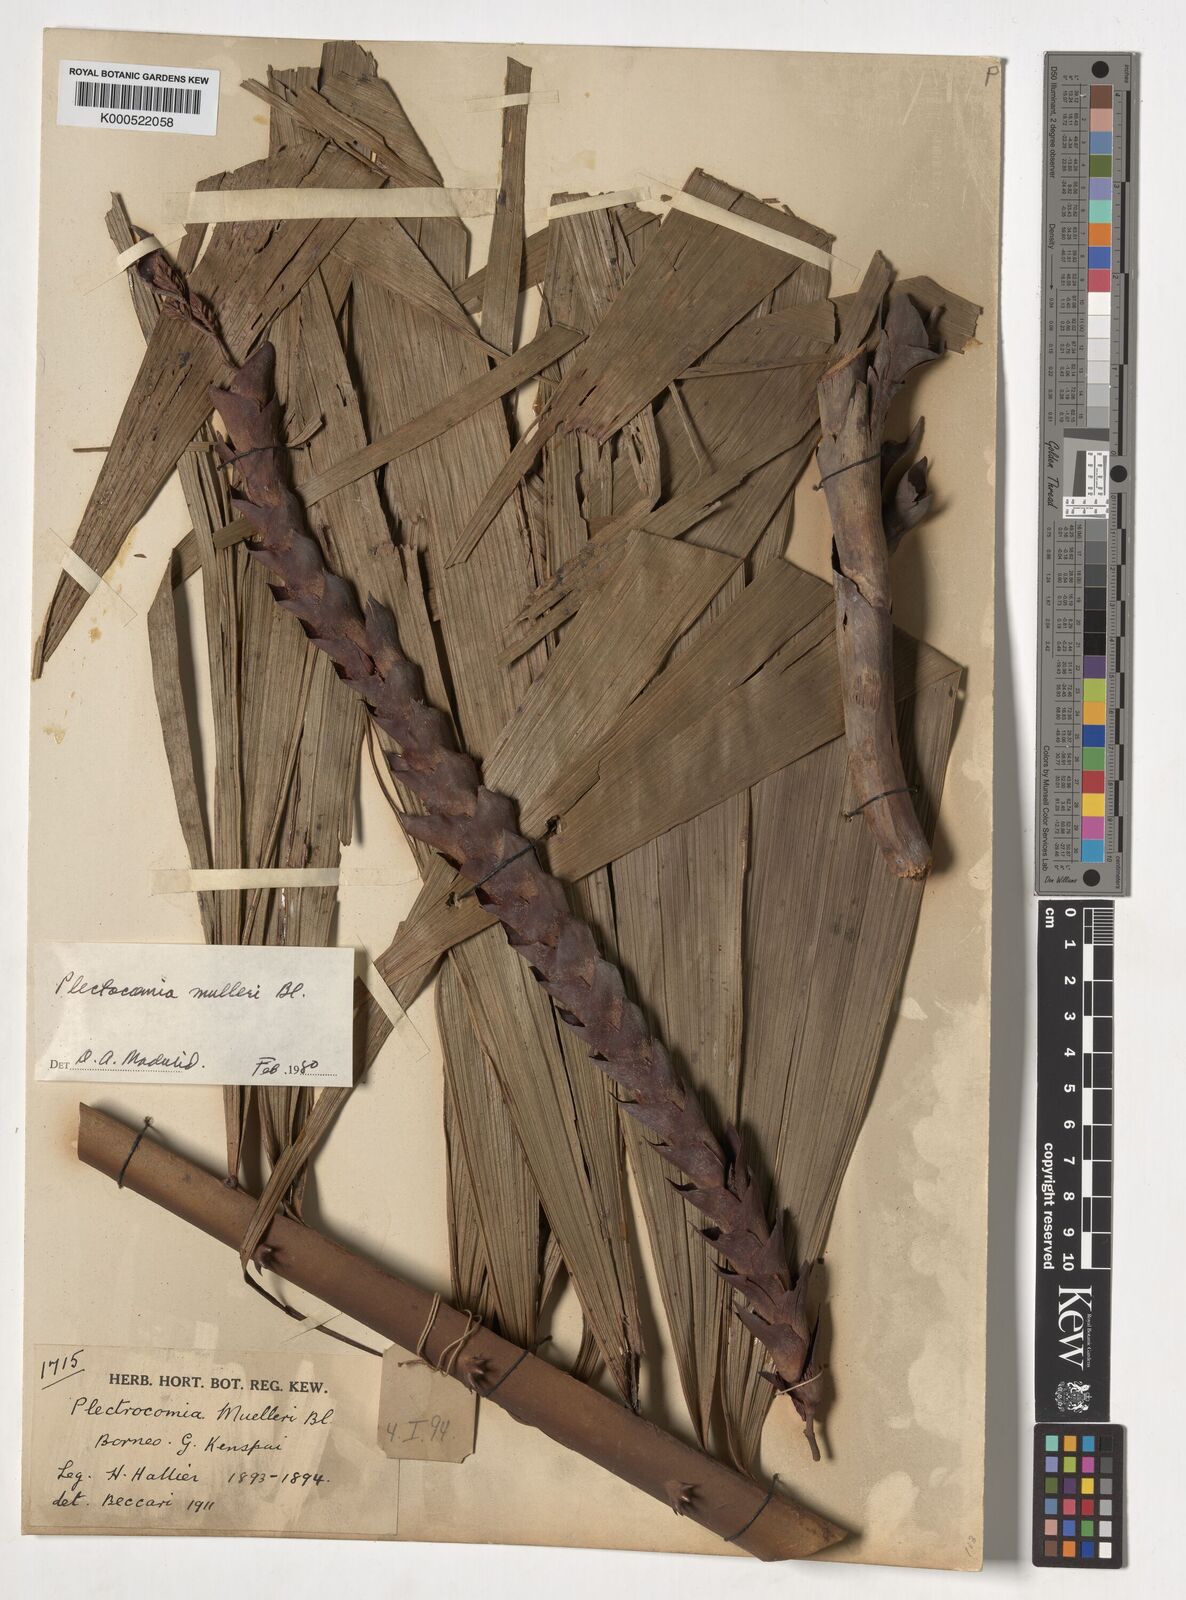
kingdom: Plantae
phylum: Tracheophyta
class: Liliopsida
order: Arecales
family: Arecaceae
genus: Plectocomia
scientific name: Plectocomia mulleri
